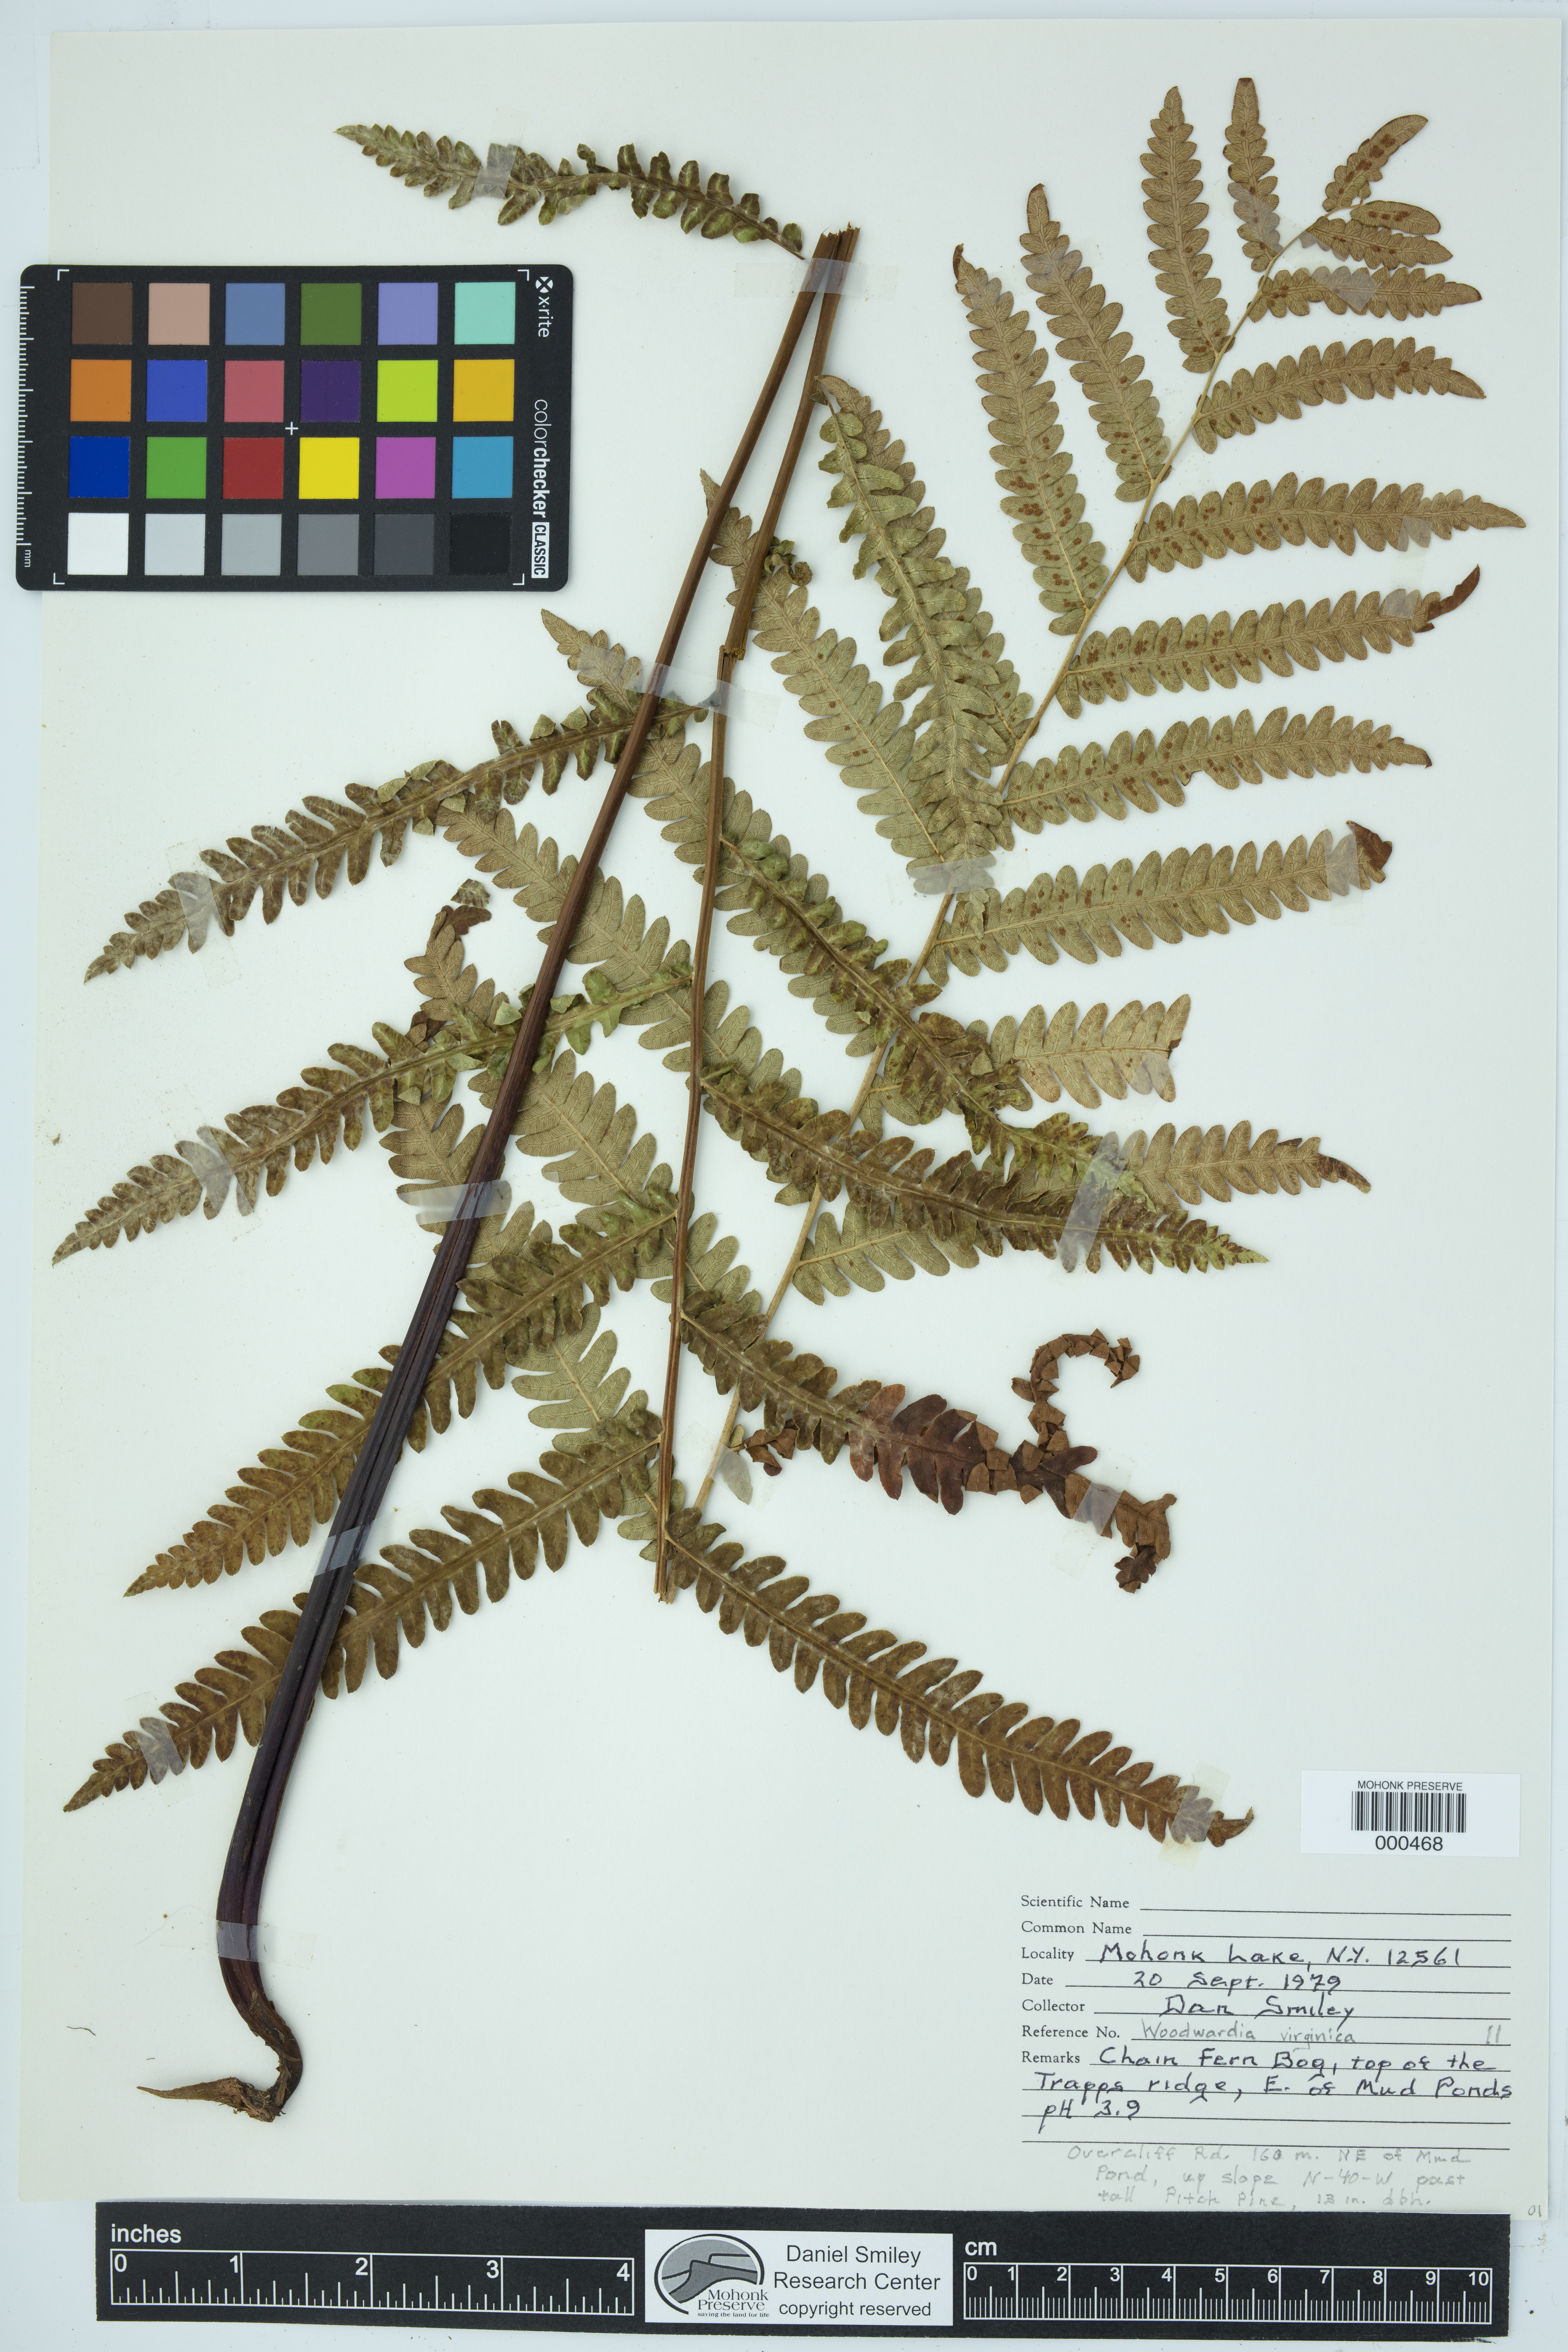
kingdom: Plantae
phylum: Tracheophyta
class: Polypodiopsida
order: Polypodiales
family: Blechnaceae
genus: Anchistea
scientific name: Anchistea virginica
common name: Virginia chain fern
